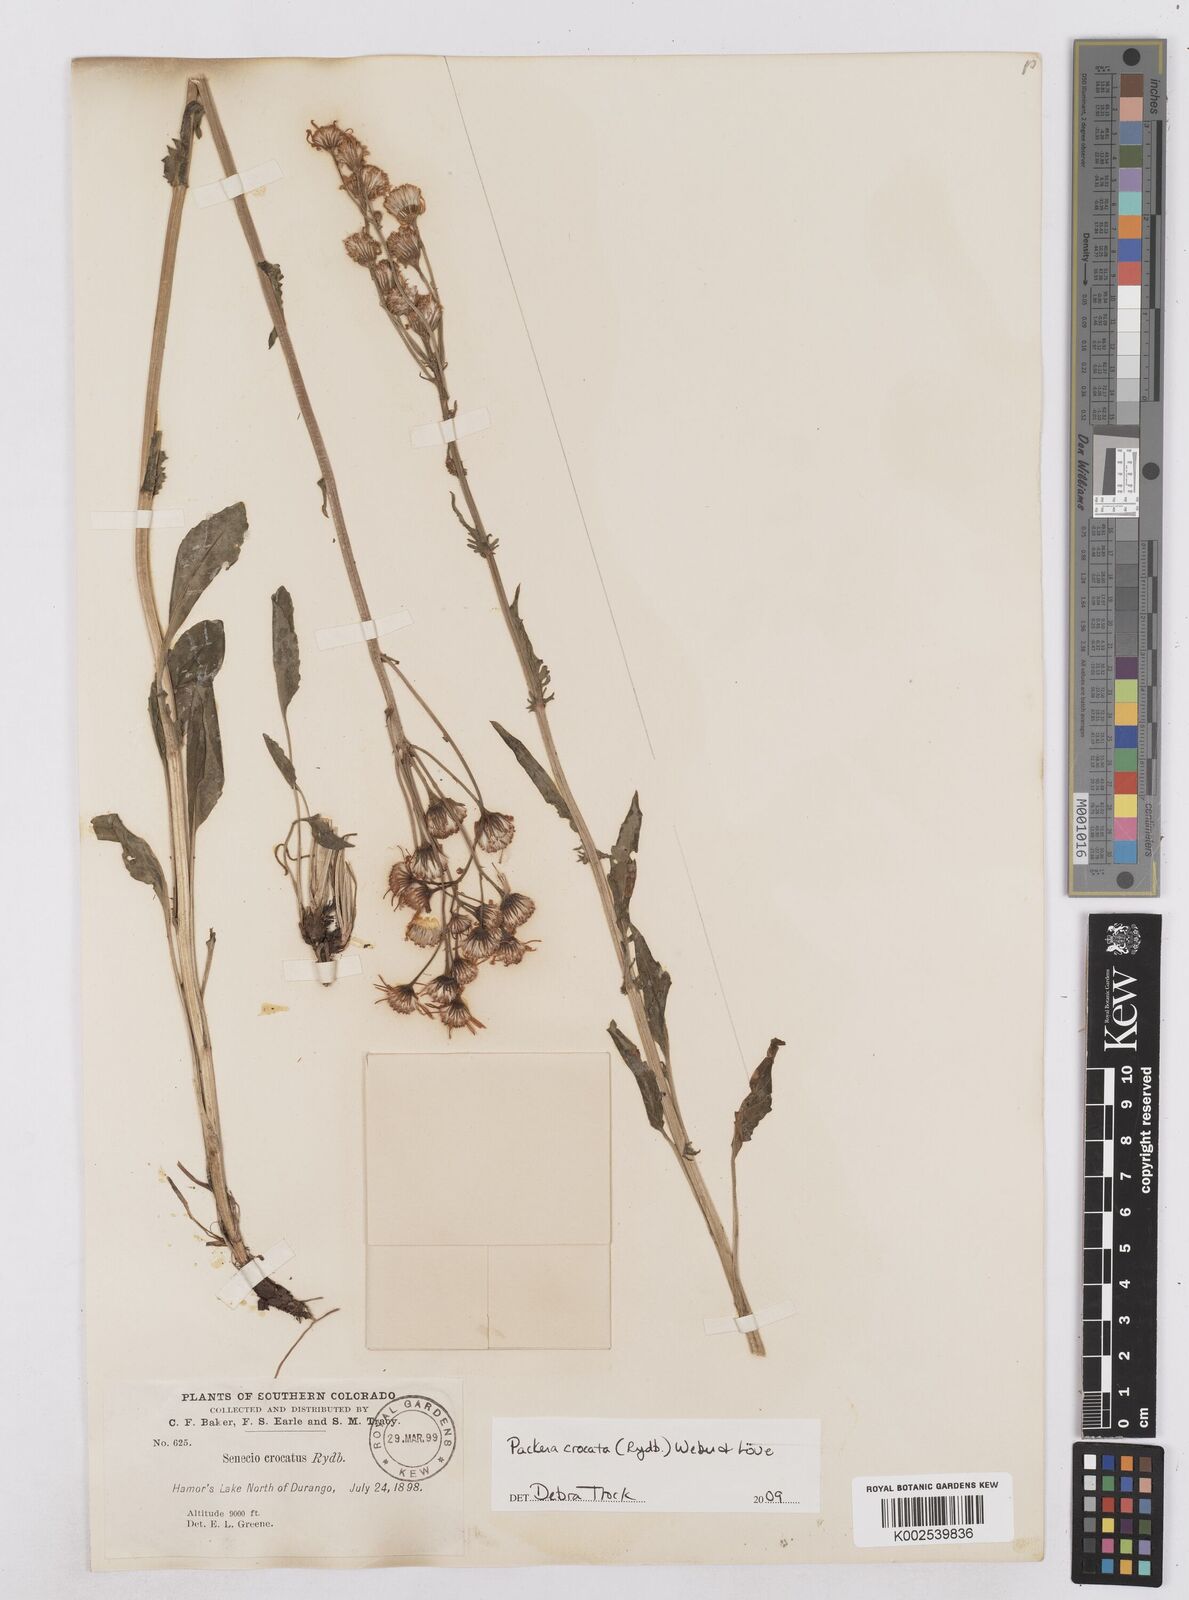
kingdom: Plantae
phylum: Tracheophyta
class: Magnoliopsida
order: Asterales
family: Asteraceae
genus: Packera
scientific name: Packera crocata
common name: Saffron ragwort
